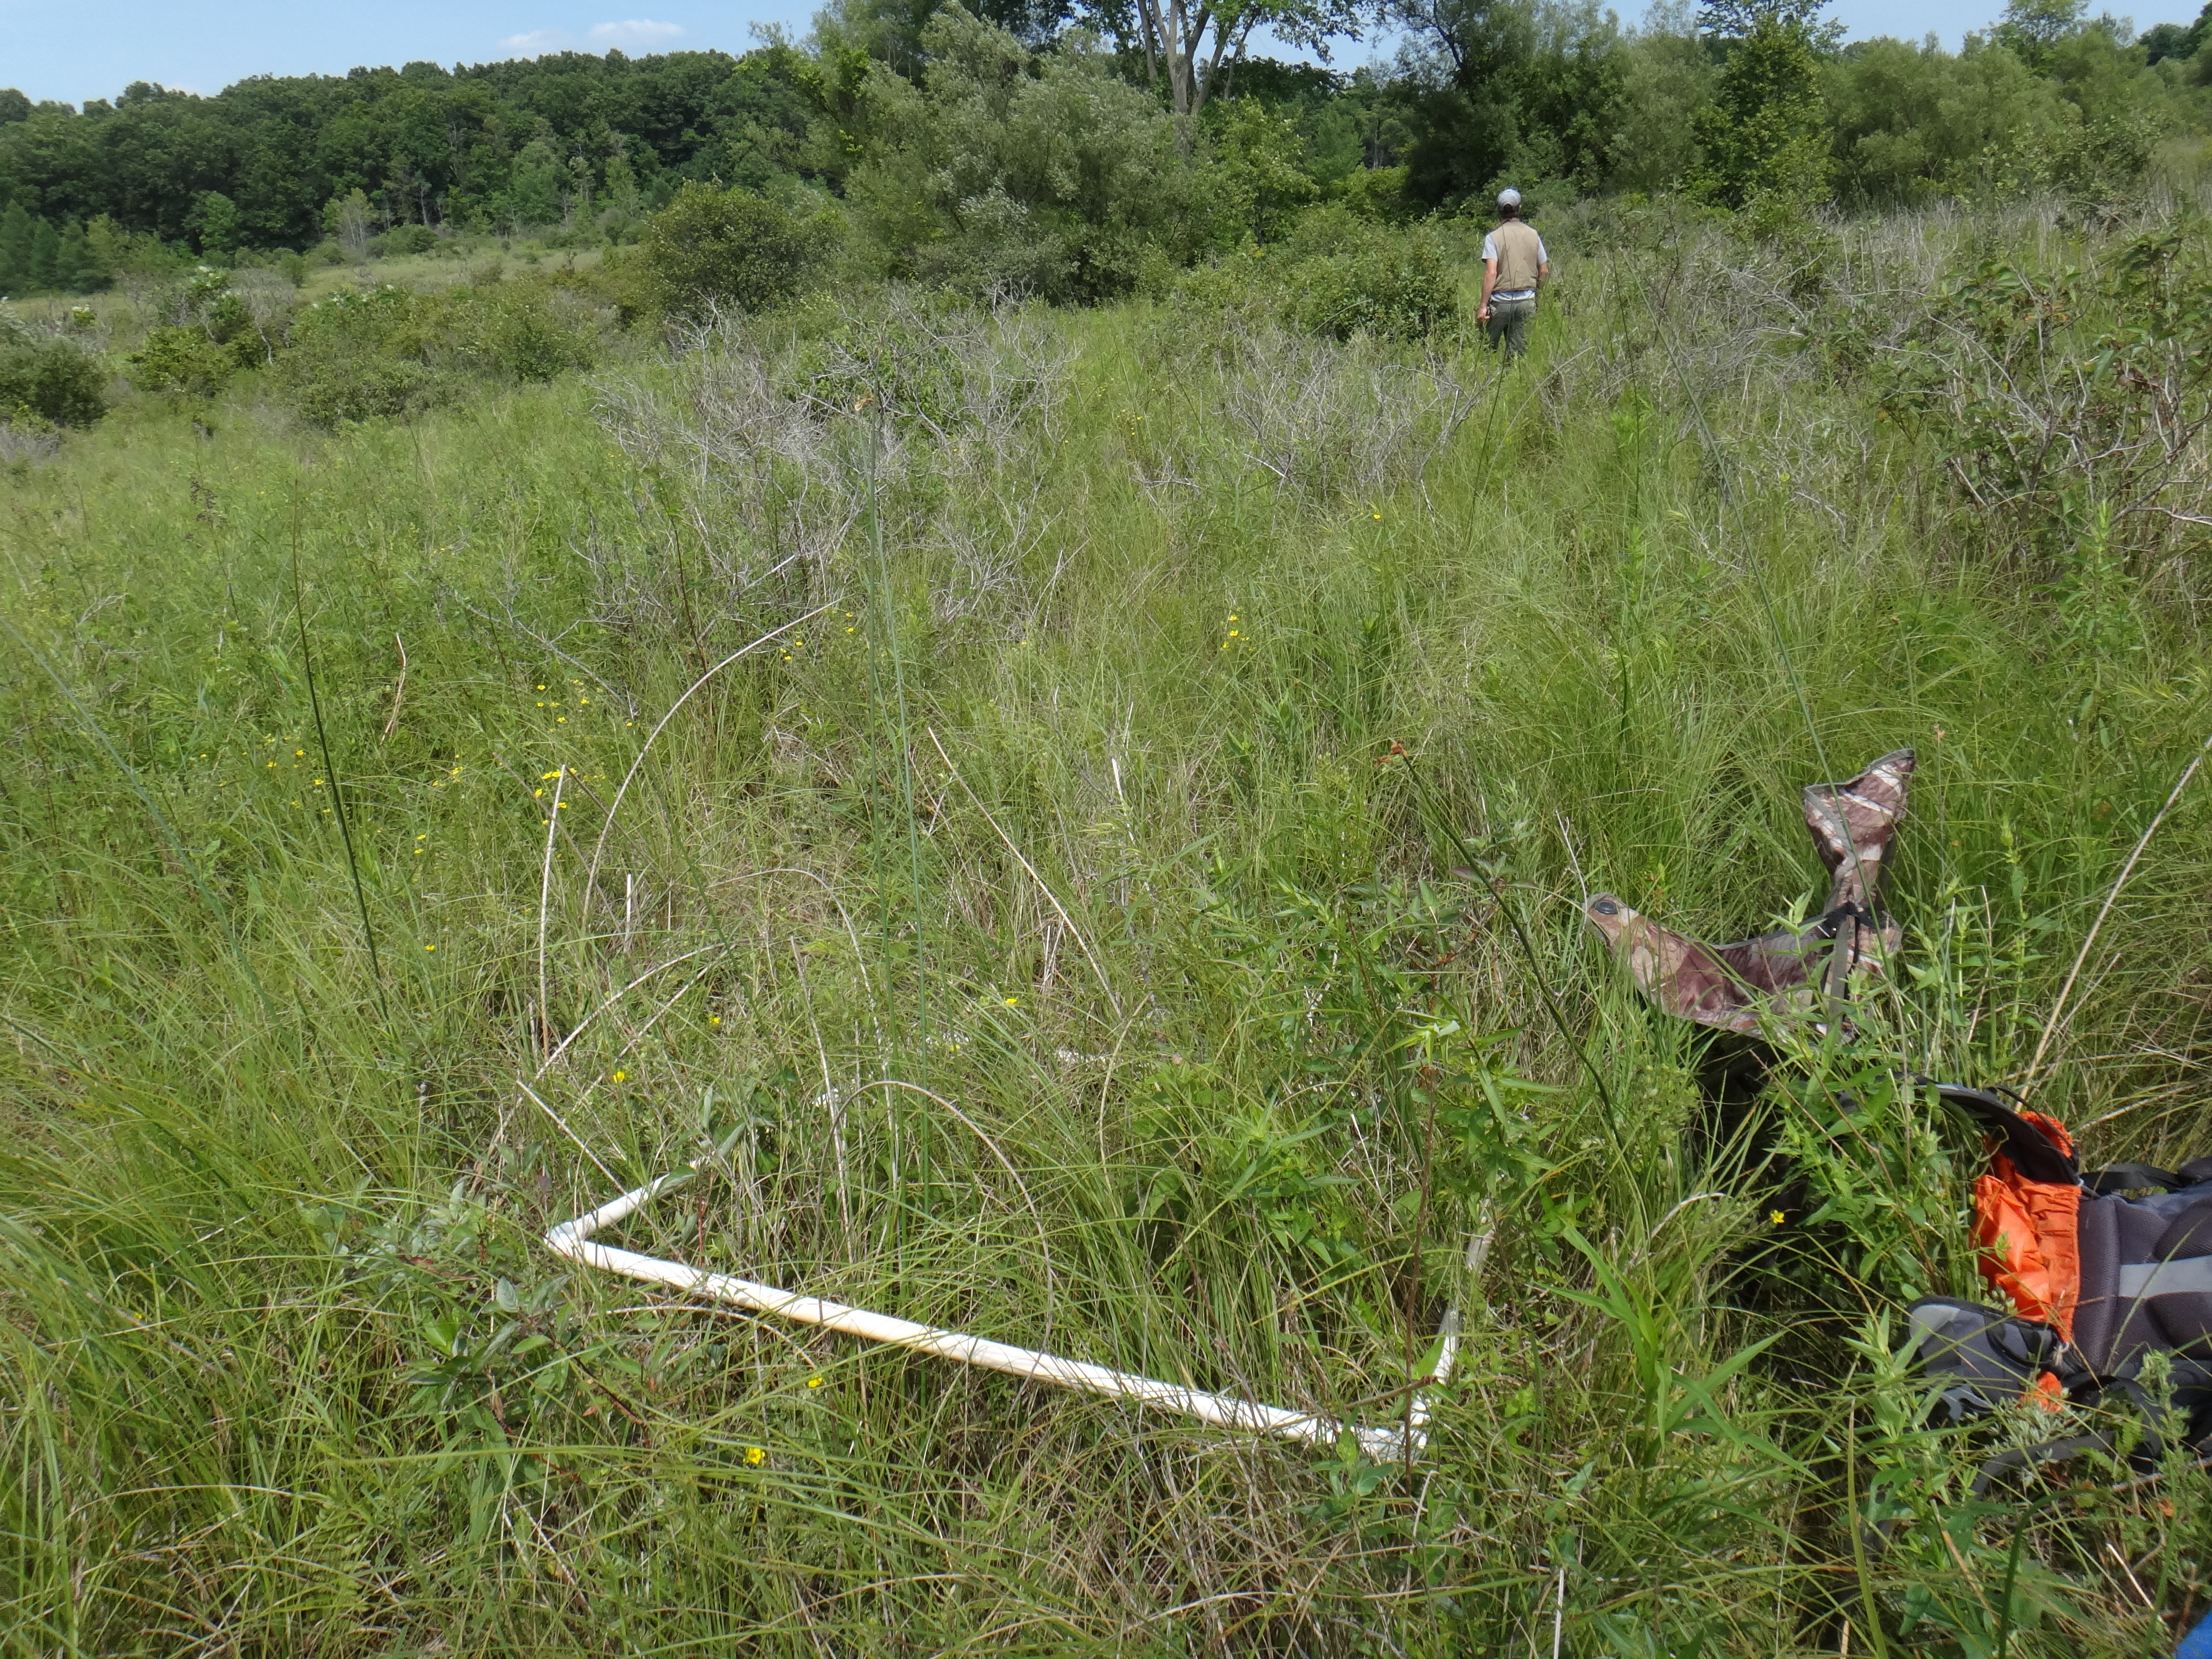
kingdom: Plantae
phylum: Tracheophyta
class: Liliopsida
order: Poales
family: Poaceae
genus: Andropogon
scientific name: Andropogon gerardi
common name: Big bluestem
